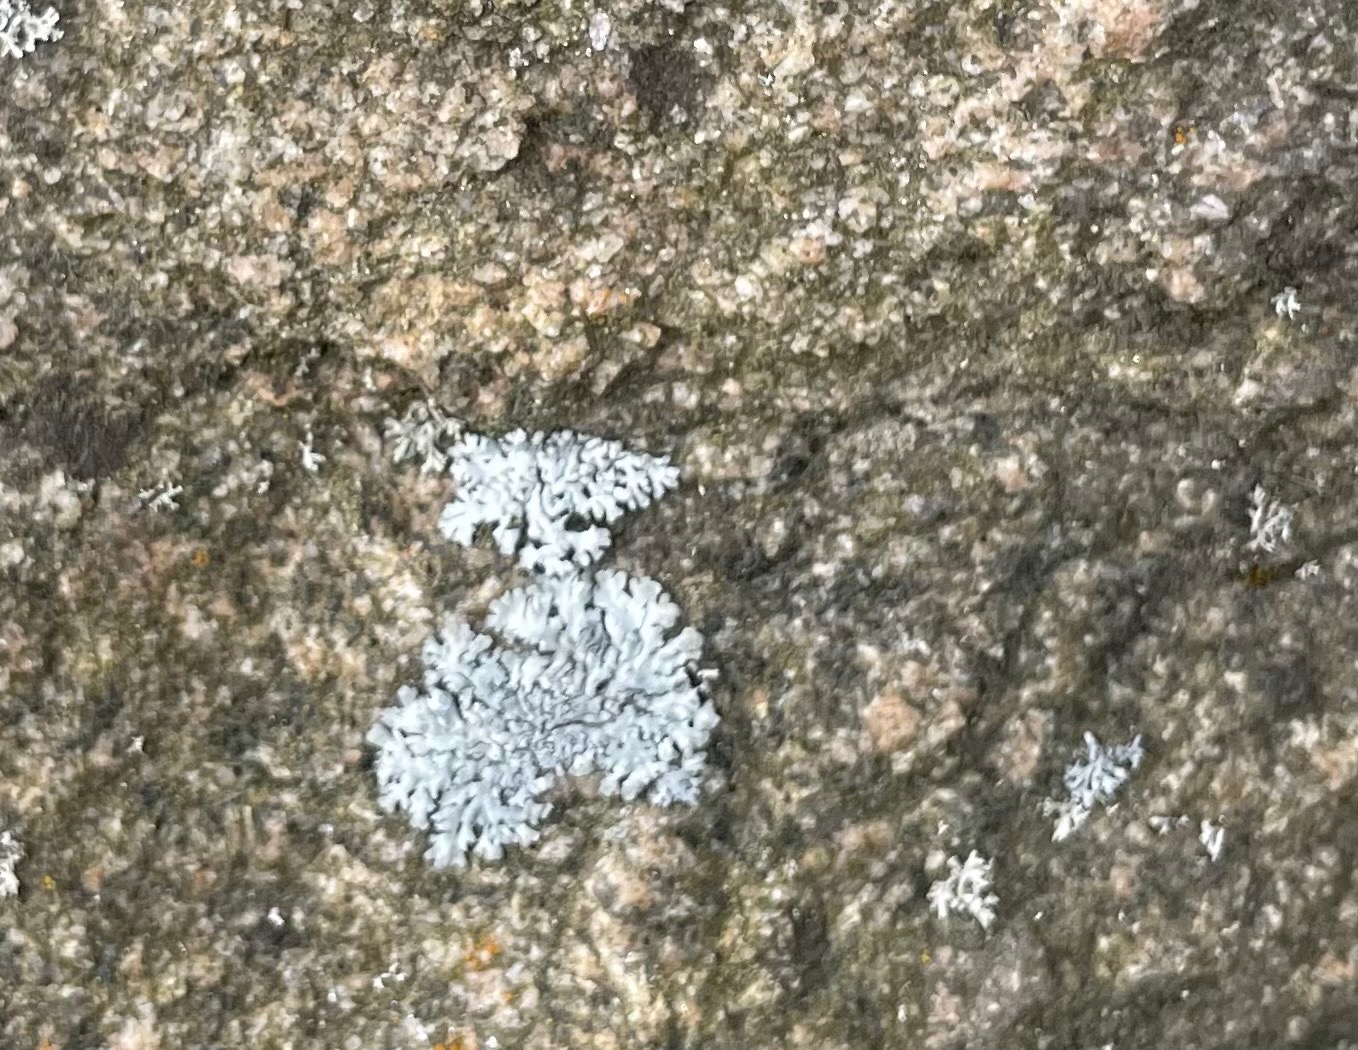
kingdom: Fungi
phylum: Ascomycota
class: Lecanoromycetes
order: Caliciales
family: Physciaceae
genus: Physcia
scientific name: Physcia caesia
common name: Blågrå rosetlav
